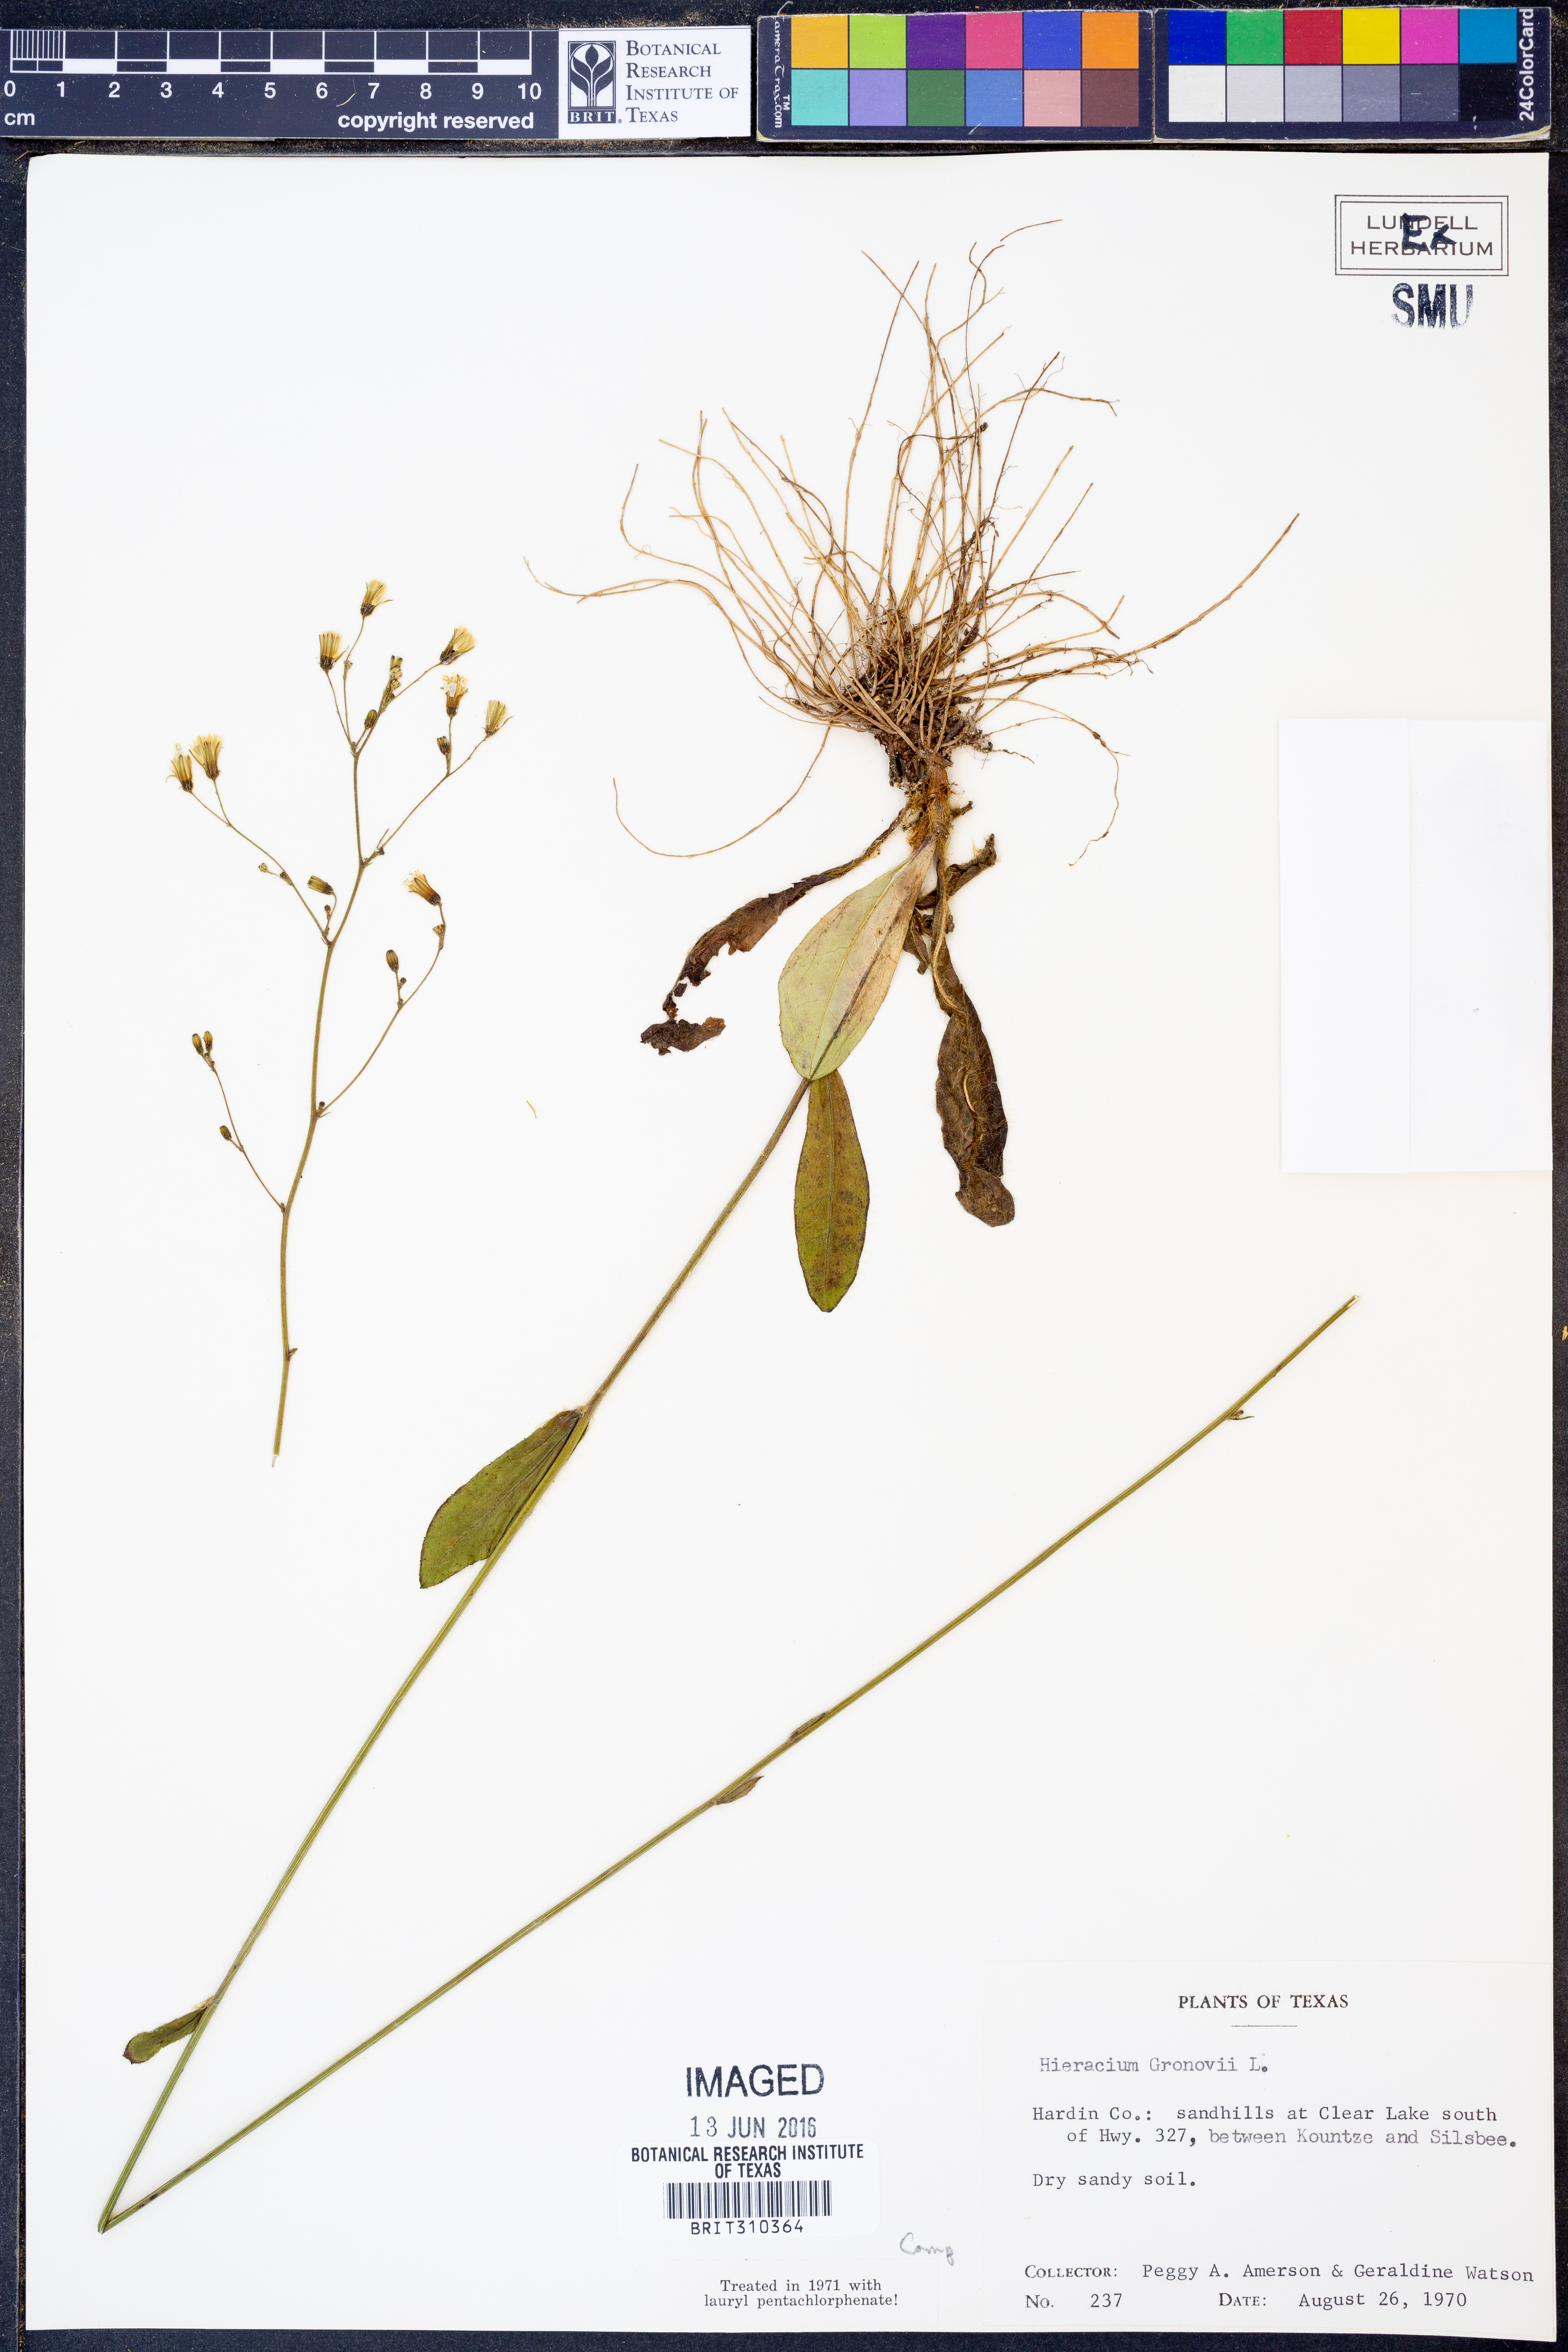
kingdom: Plantae
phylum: Tracheophyta
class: Magnoliopsida
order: Asterales
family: Asteraceae
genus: Hieracium
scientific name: Hieracium gronovii
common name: Beaked hawkweed
